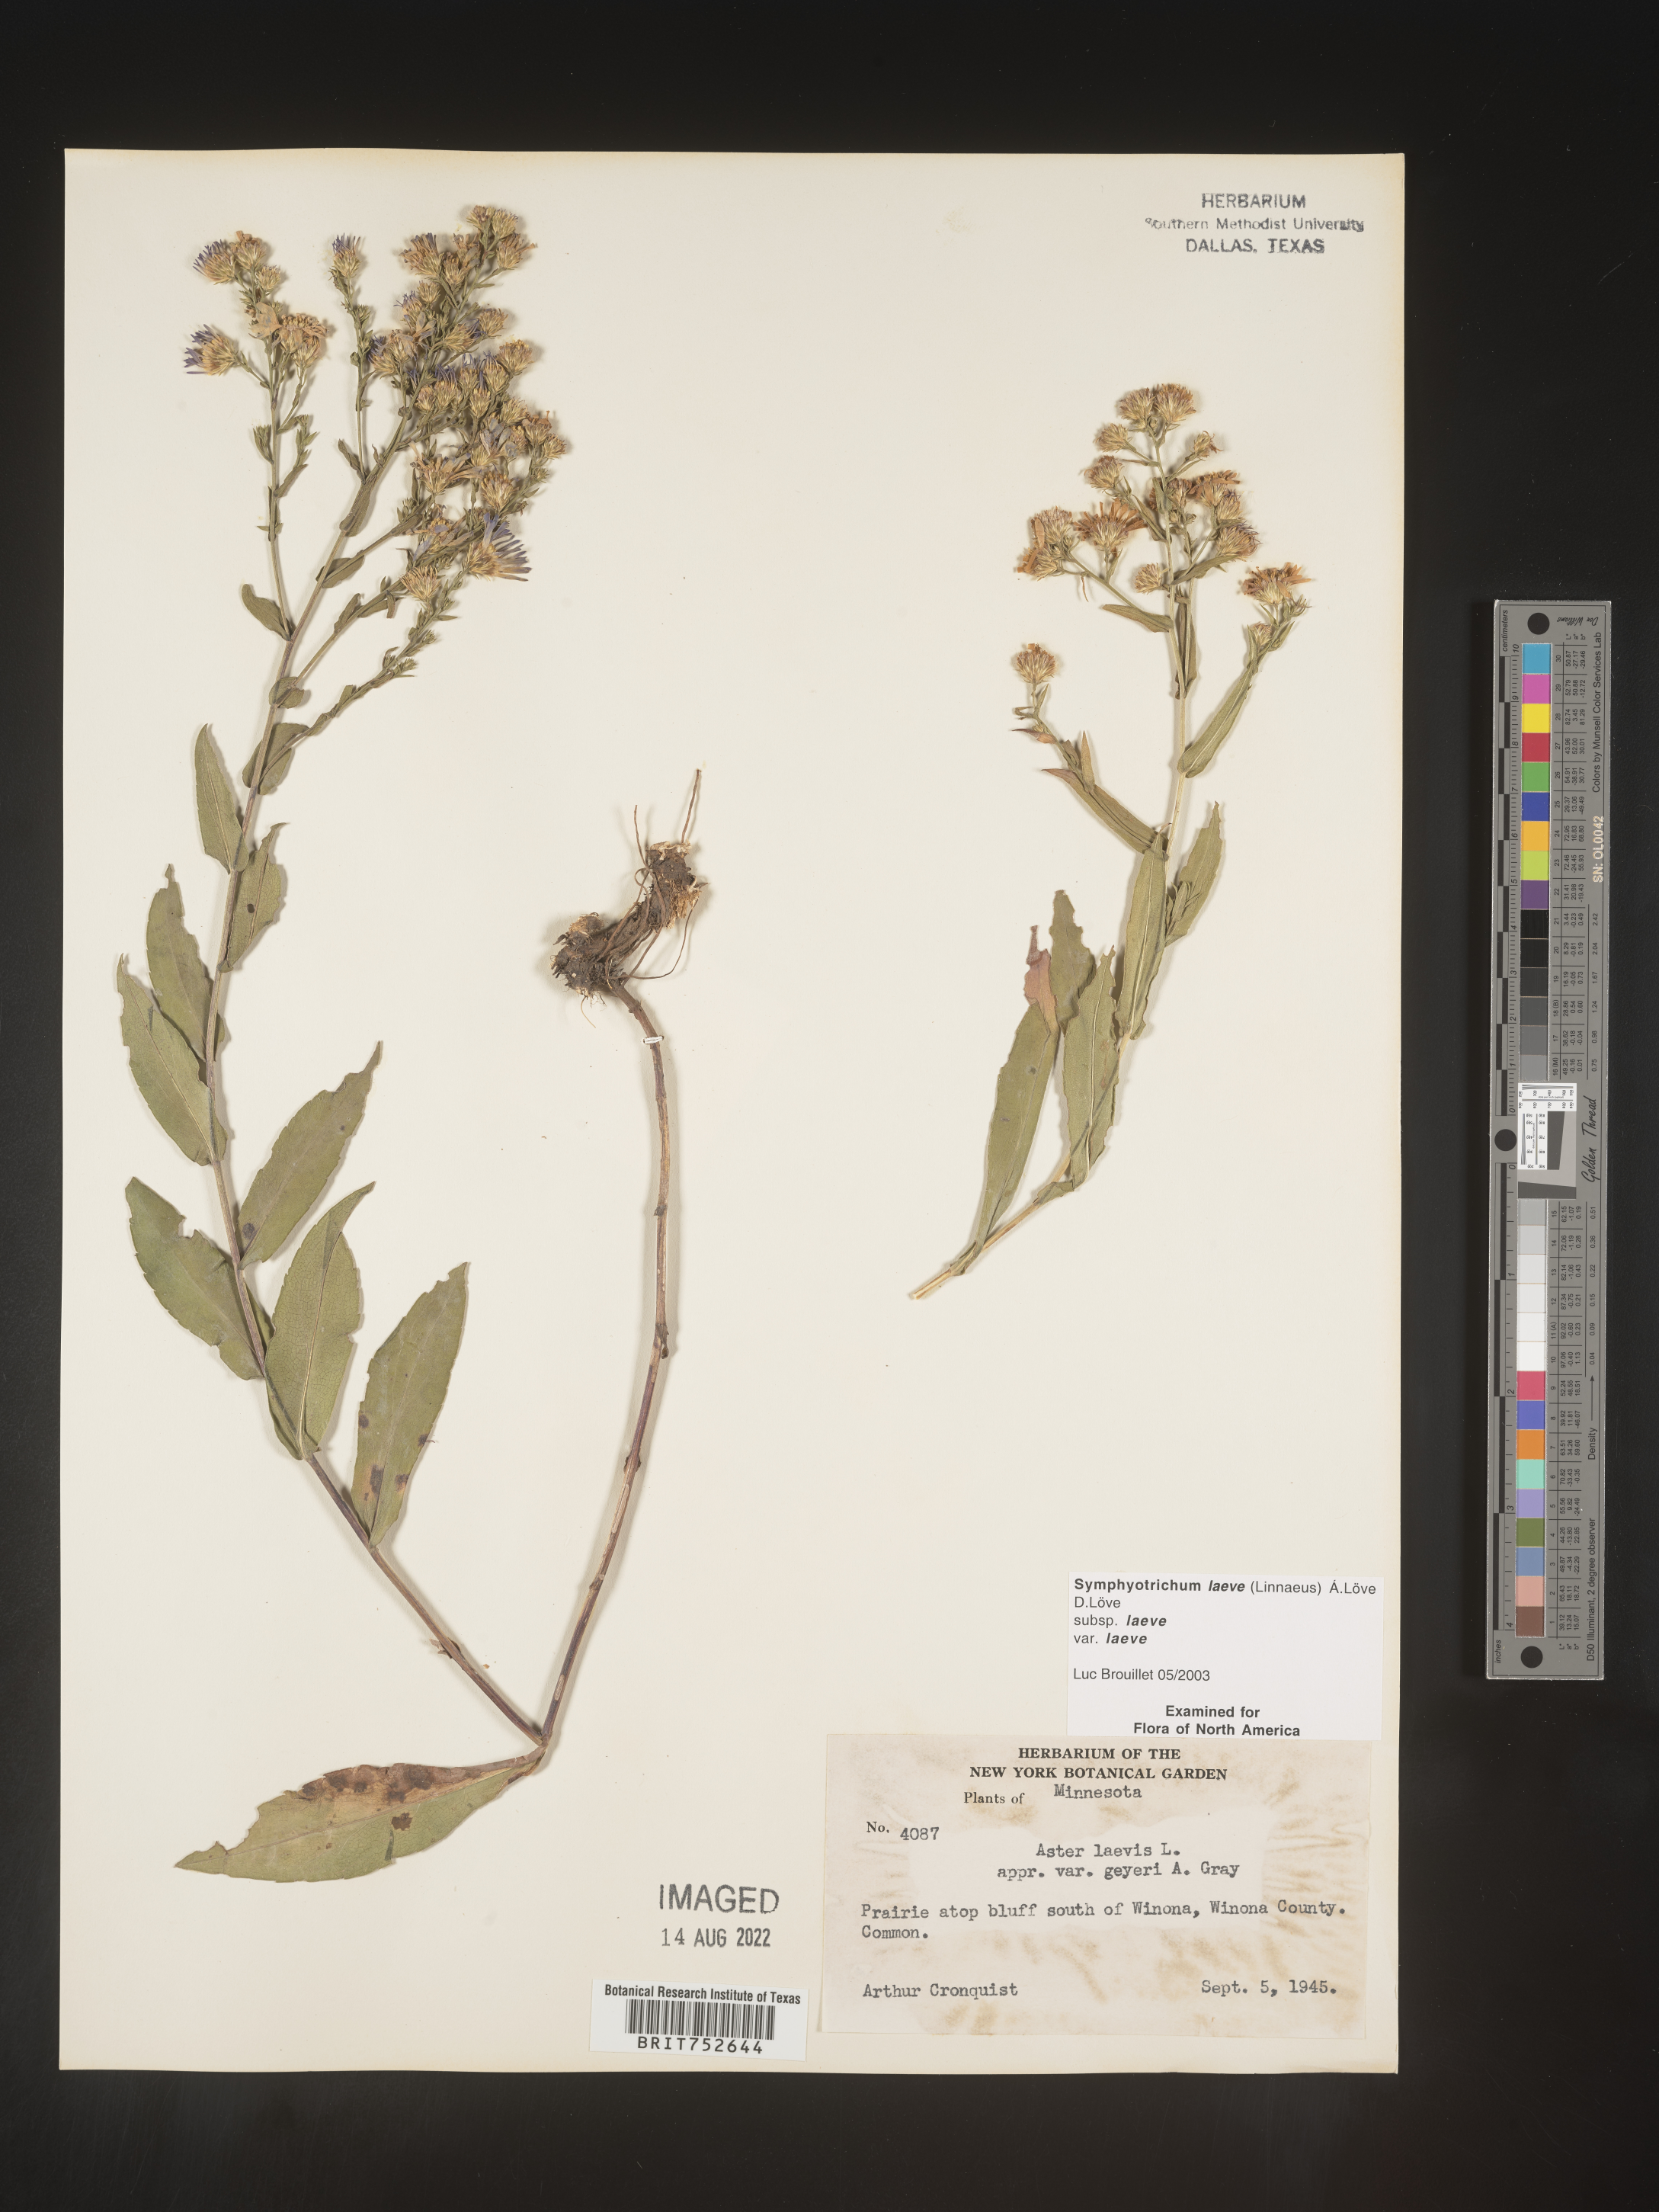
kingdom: Plantae
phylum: Tracheophyta
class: Magnoliopsida
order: Asterales
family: Asteraceae
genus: Symphyotrichum
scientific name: Symphyotrichum laeve
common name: Glaucous aster
